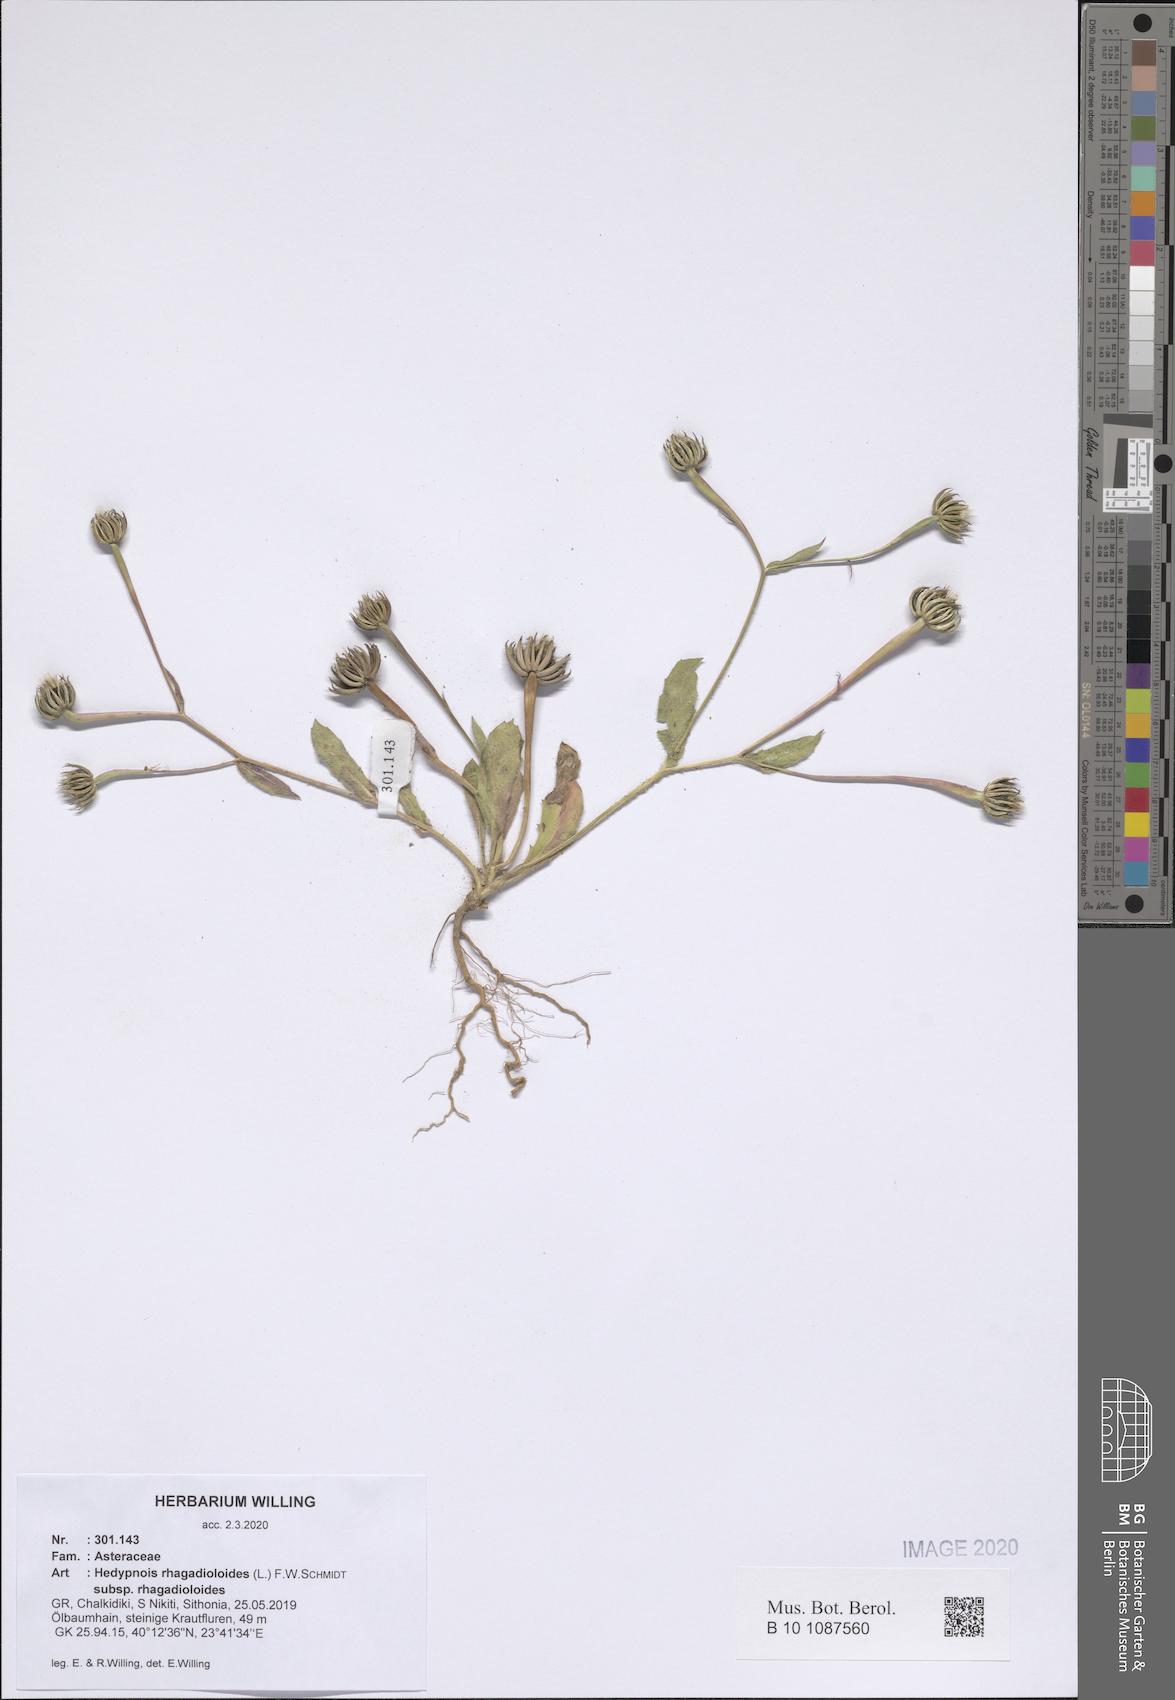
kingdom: Plantae
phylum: Tracheophyta
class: Magnoliopsida
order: Asterales
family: Asteraceae
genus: Hedypnois
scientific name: Hedypnois rhagadioloides
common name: Cretan weed
